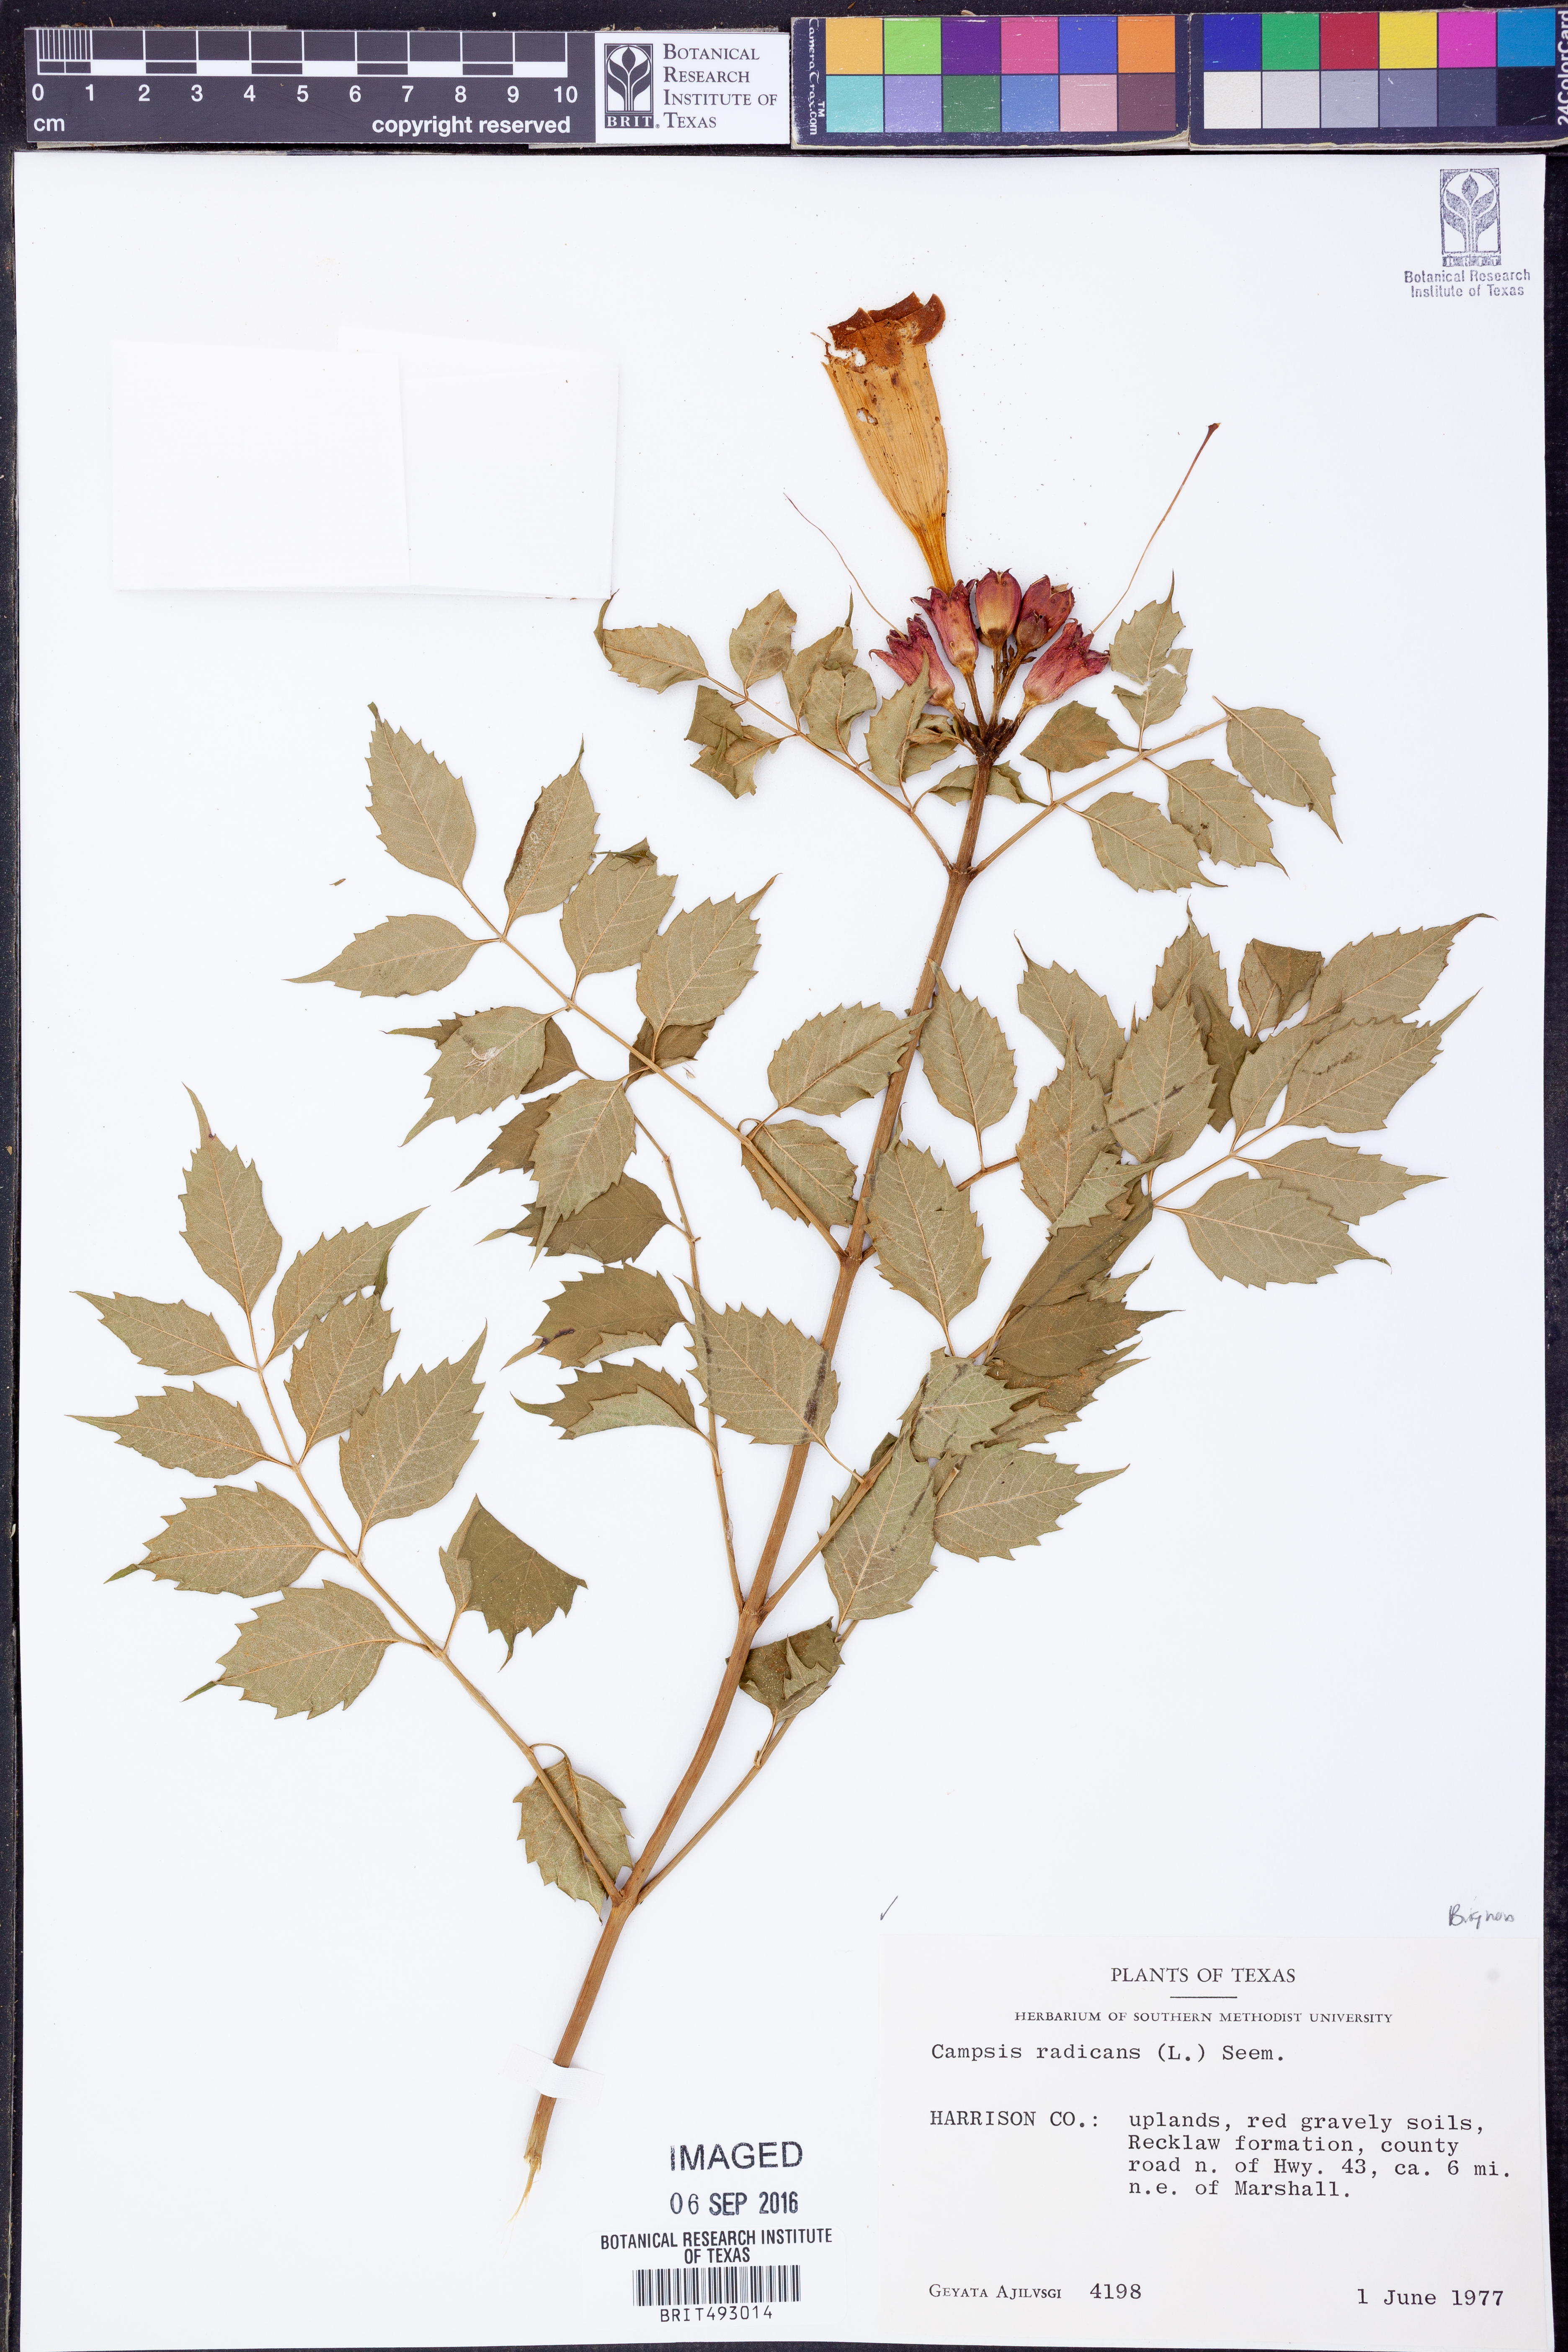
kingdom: Plantae
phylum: Tracheophyta
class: Magnoliopsida
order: Lamiales
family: Bignoniaceae
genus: Campsis
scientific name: Campsis radicans
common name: Trumpet-creeper
